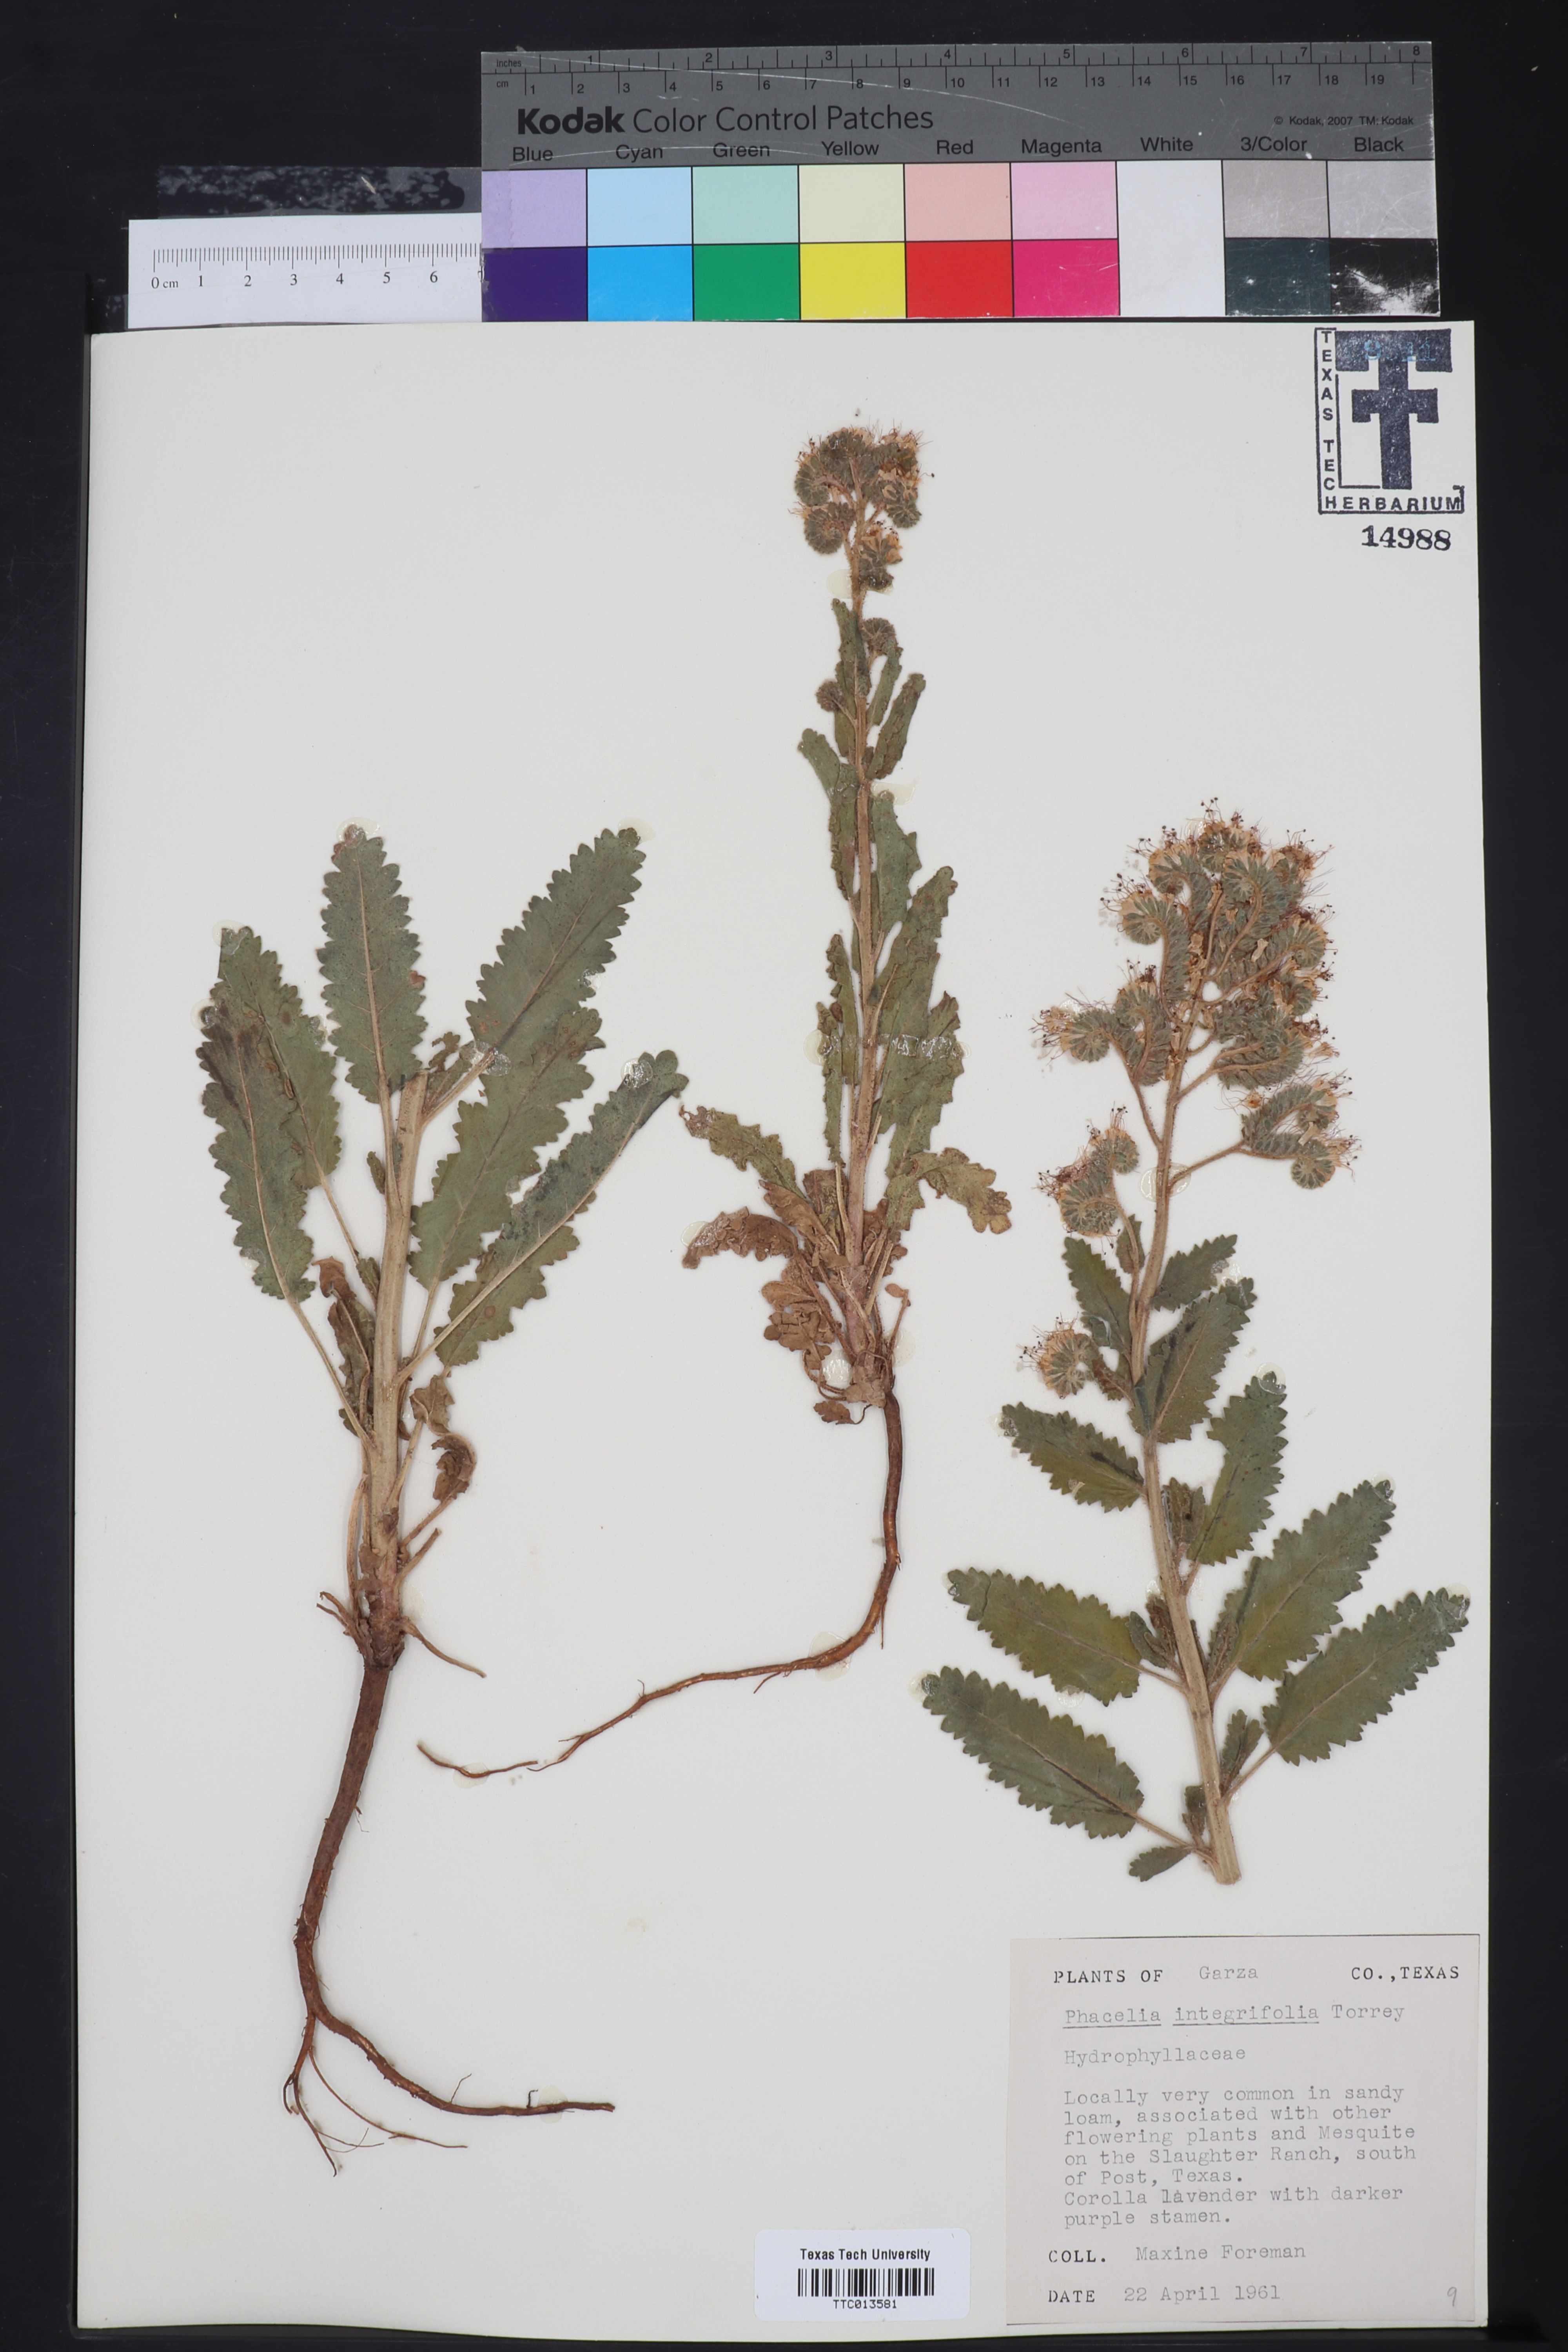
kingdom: Plantae
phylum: Tracheophyta
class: Magnoliopsida
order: Boraginales
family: Hydrophyllaceae
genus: Phacelia
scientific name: Phacelia integrifolia
